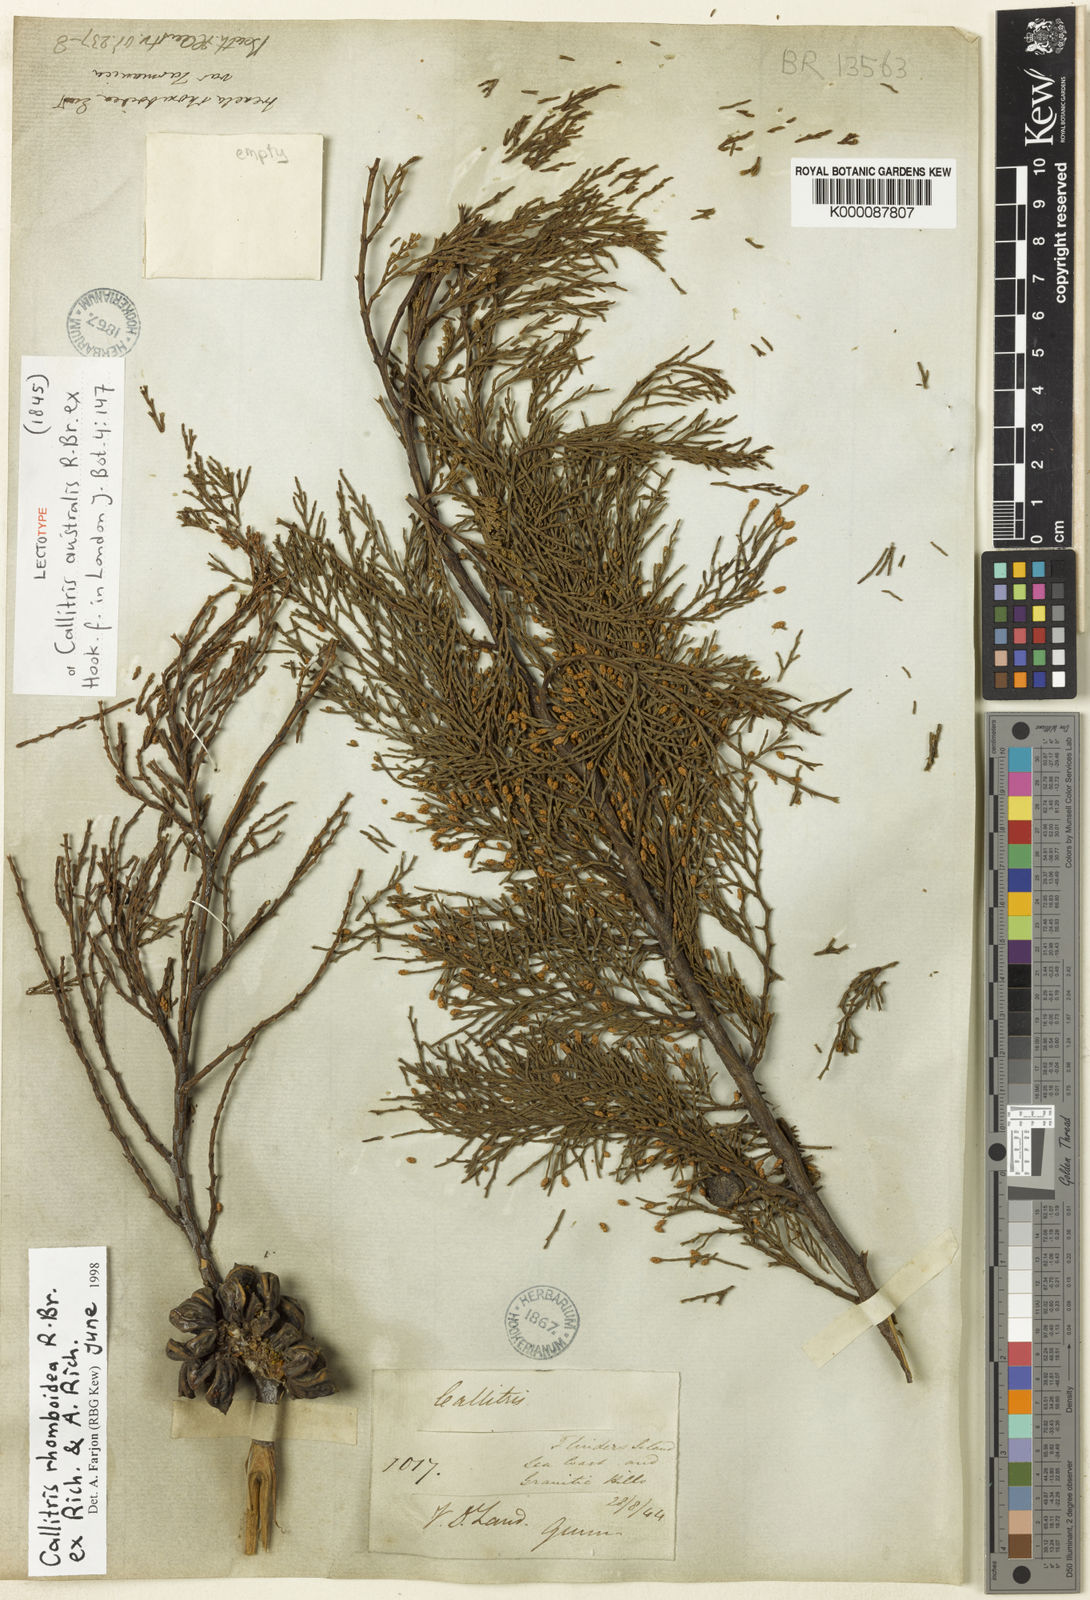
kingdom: Plantae
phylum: Tracheophyta
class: Pinopsida
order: Pinales
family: Cupressaceae
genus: Callitris
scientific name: Callitris rhomboidea
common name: Illawara mountain pine
